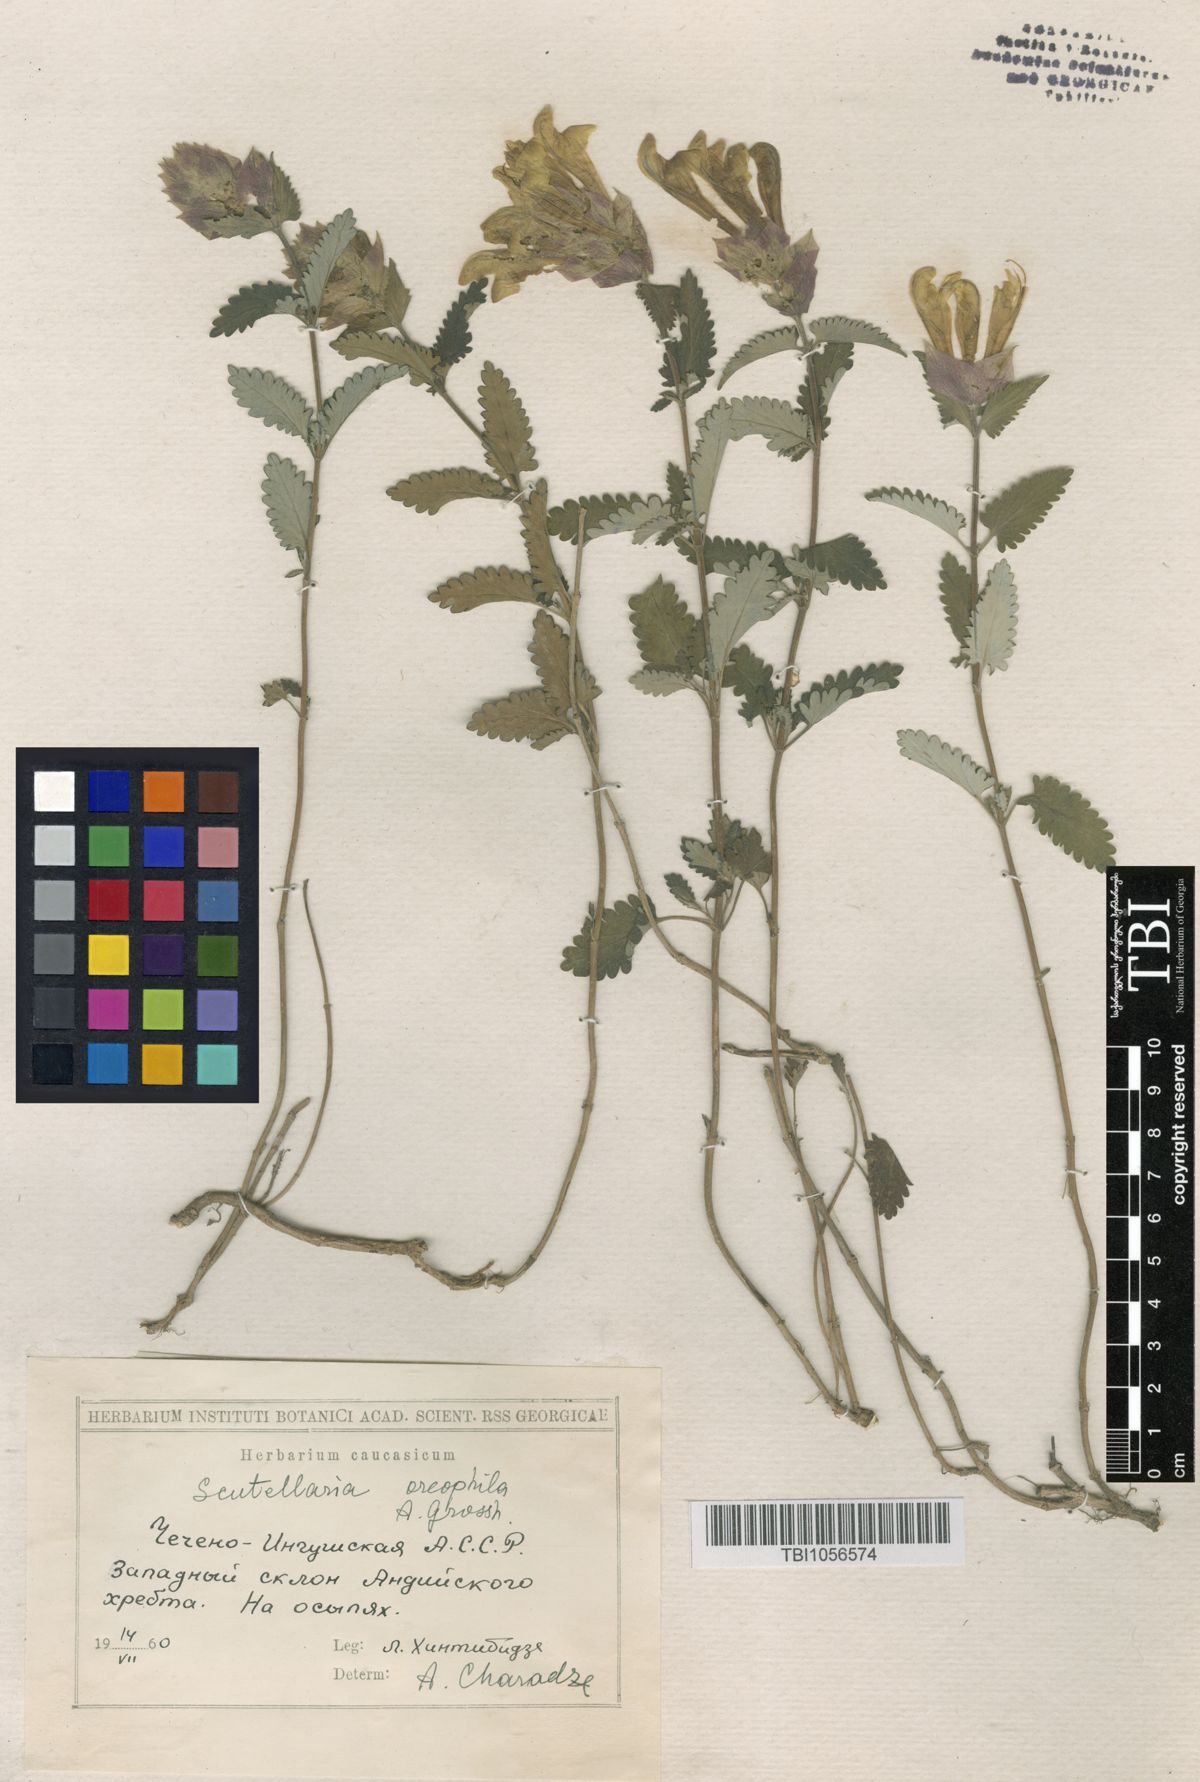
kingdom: Plantae
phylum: Tracheophyta
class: Magnoliopsida
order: Lamiales
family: Lamiaceae
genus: Scutellaria
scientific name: Scutellaria oreophila
